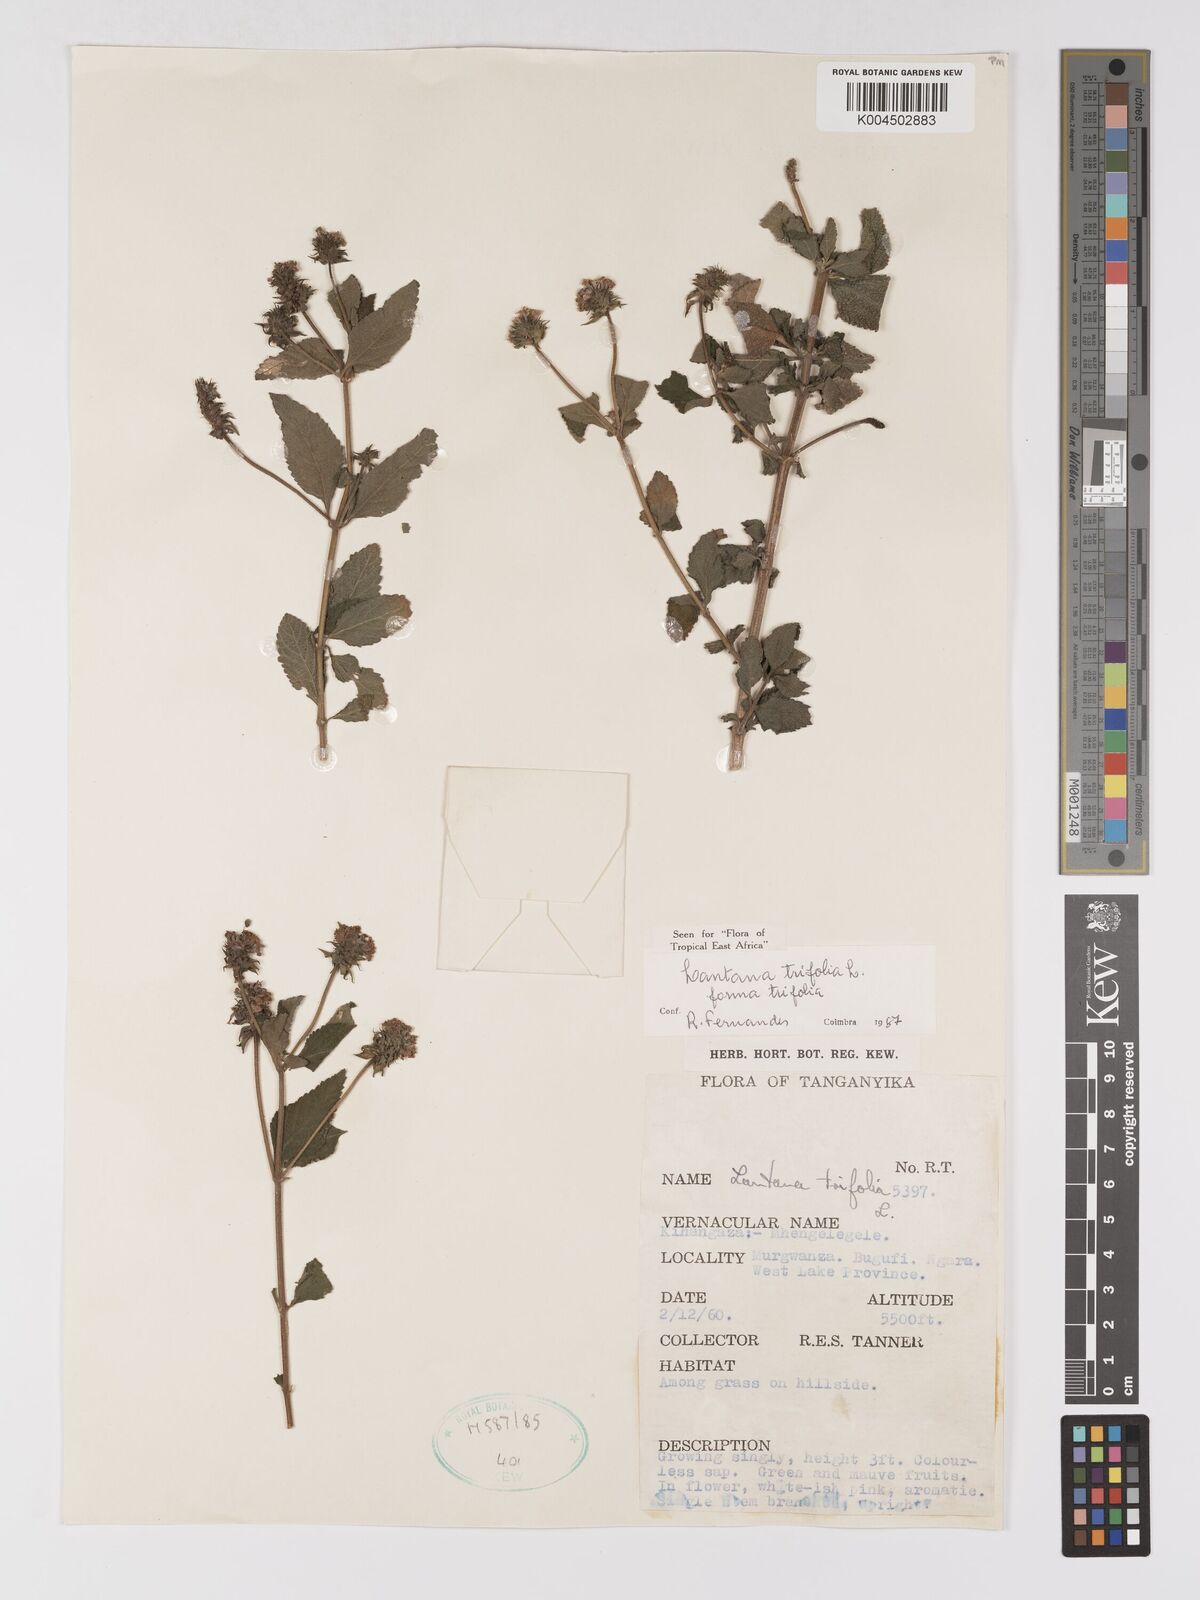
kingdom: Plantae
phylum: Tracheophyta
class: Magnoliopsida
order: Lamiales
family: Verbenaceae
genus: Lantana
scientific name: Lantana trifolia
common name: Sweet-sage
